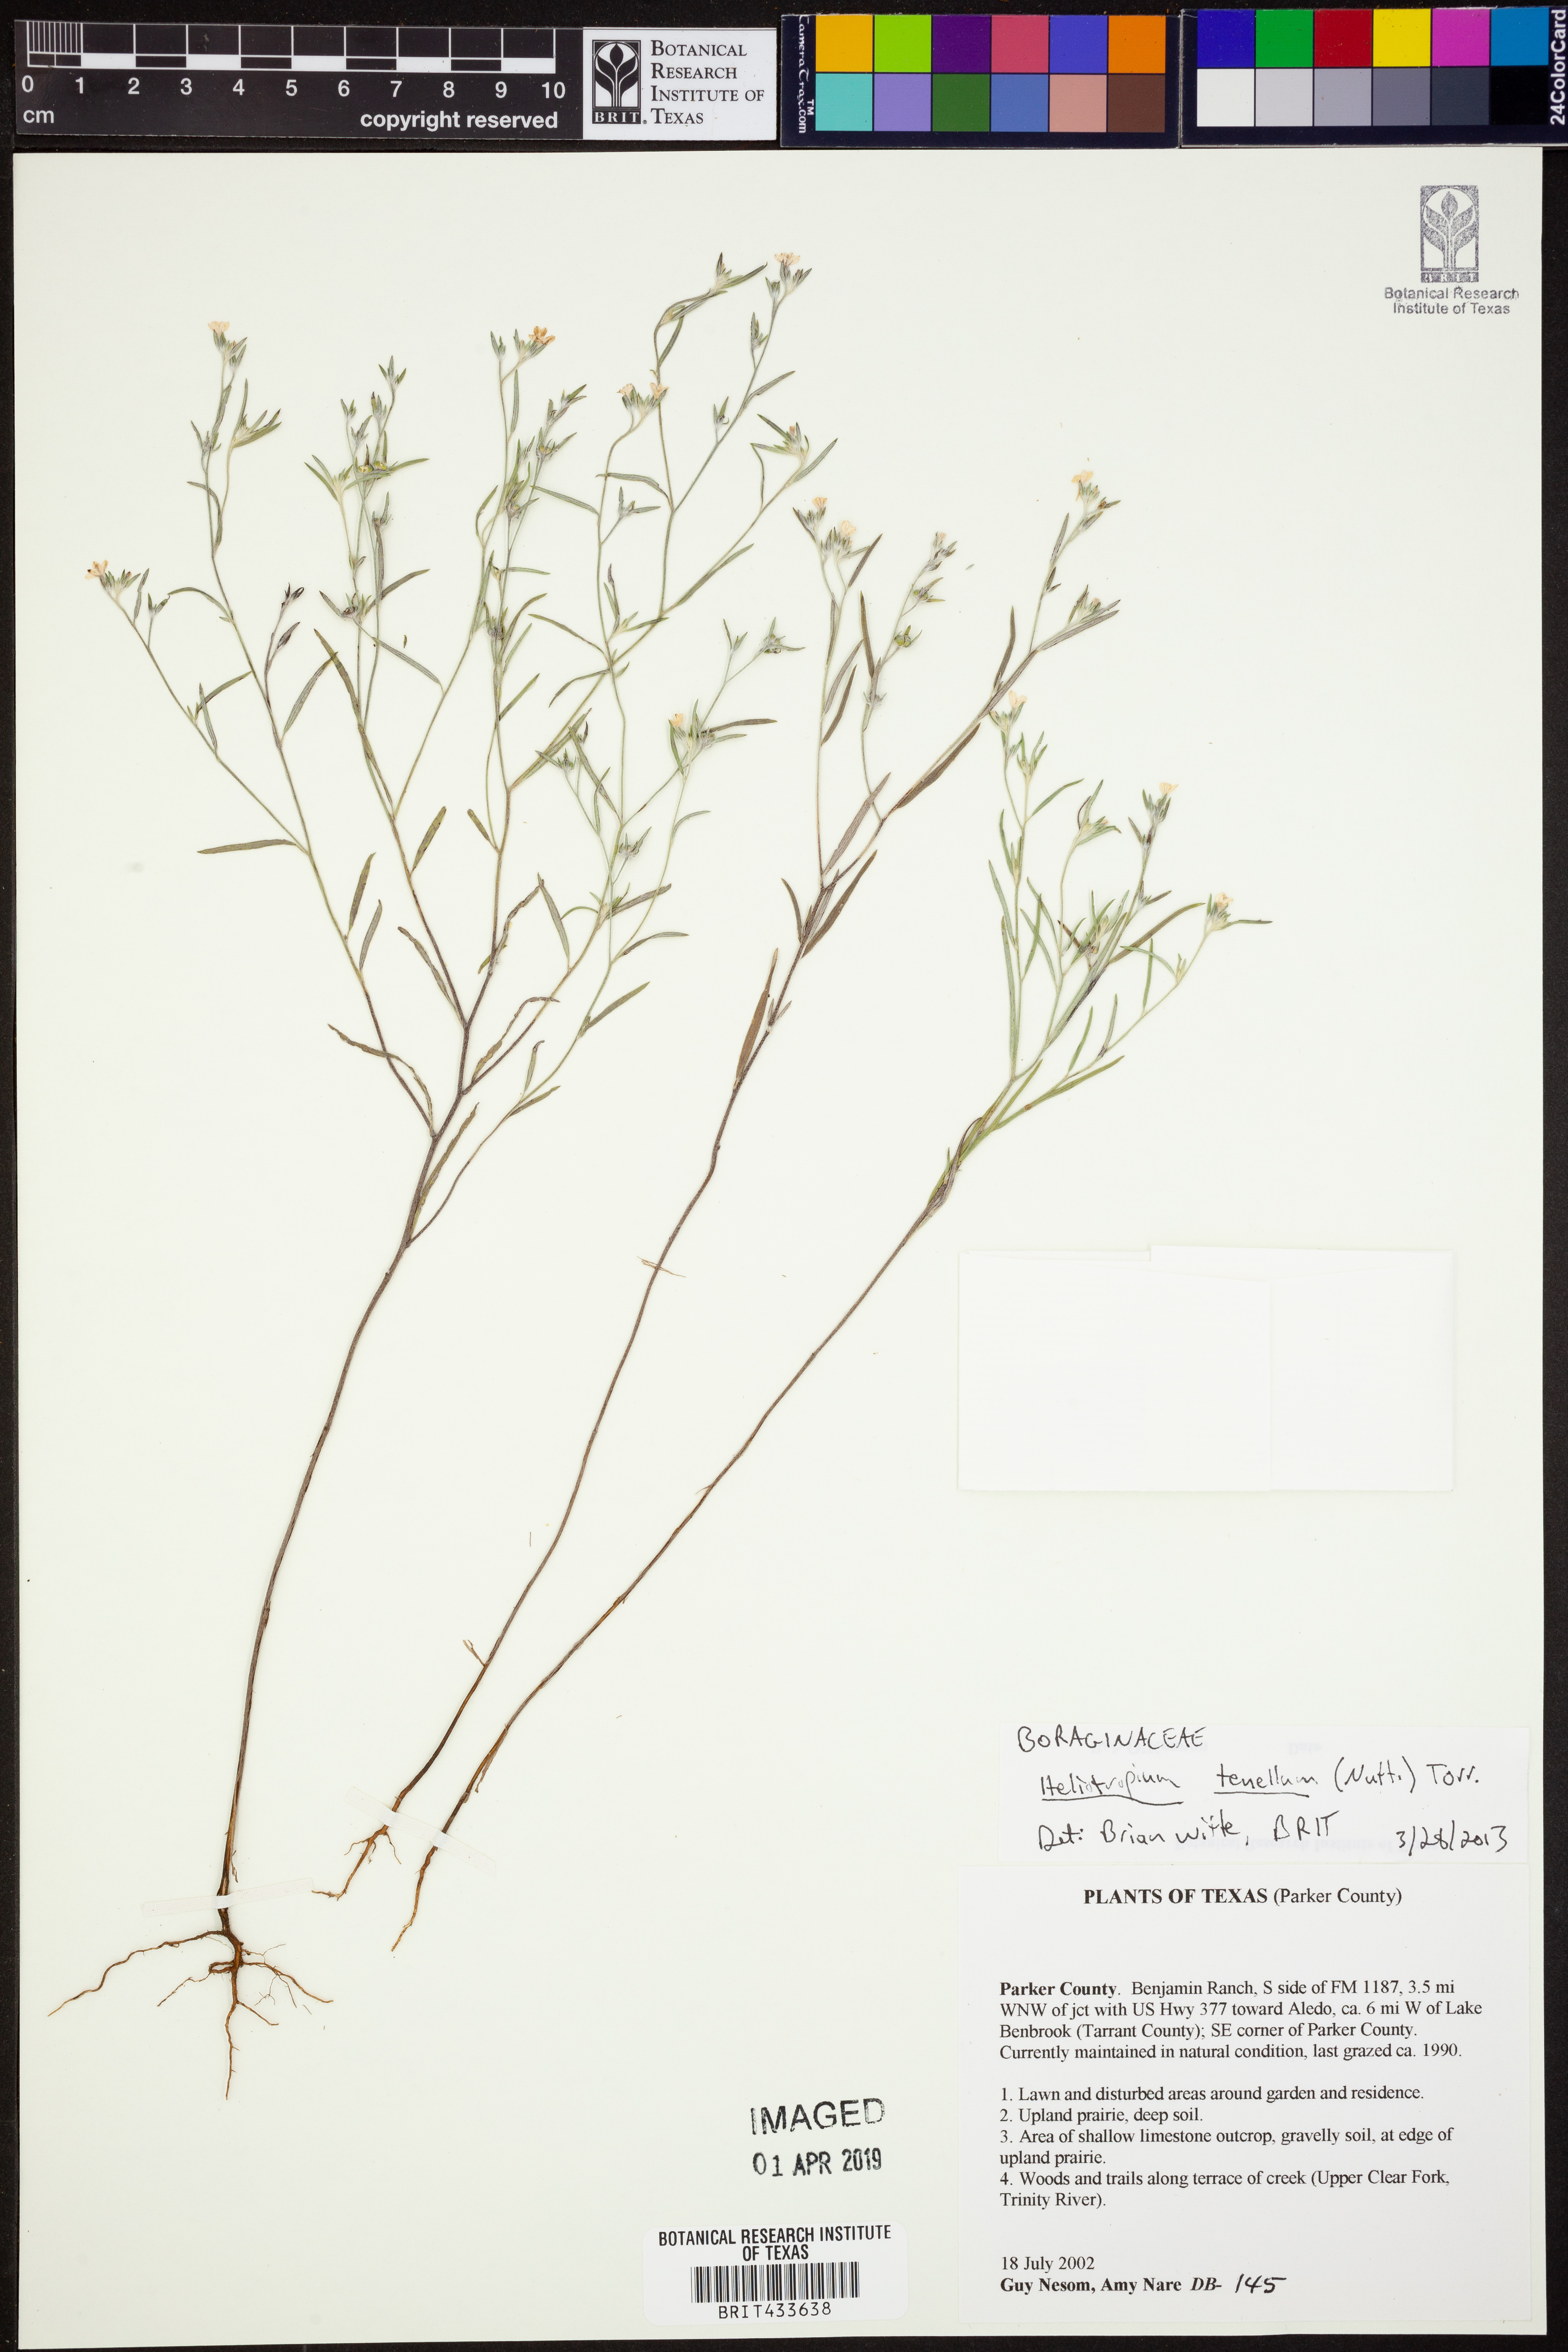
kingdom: Plantae
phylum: Tracheophyta
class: Magnoliopsida
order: Boraginales
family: Heliotropiaceae
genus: Euploca
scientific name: Euploca tenella
